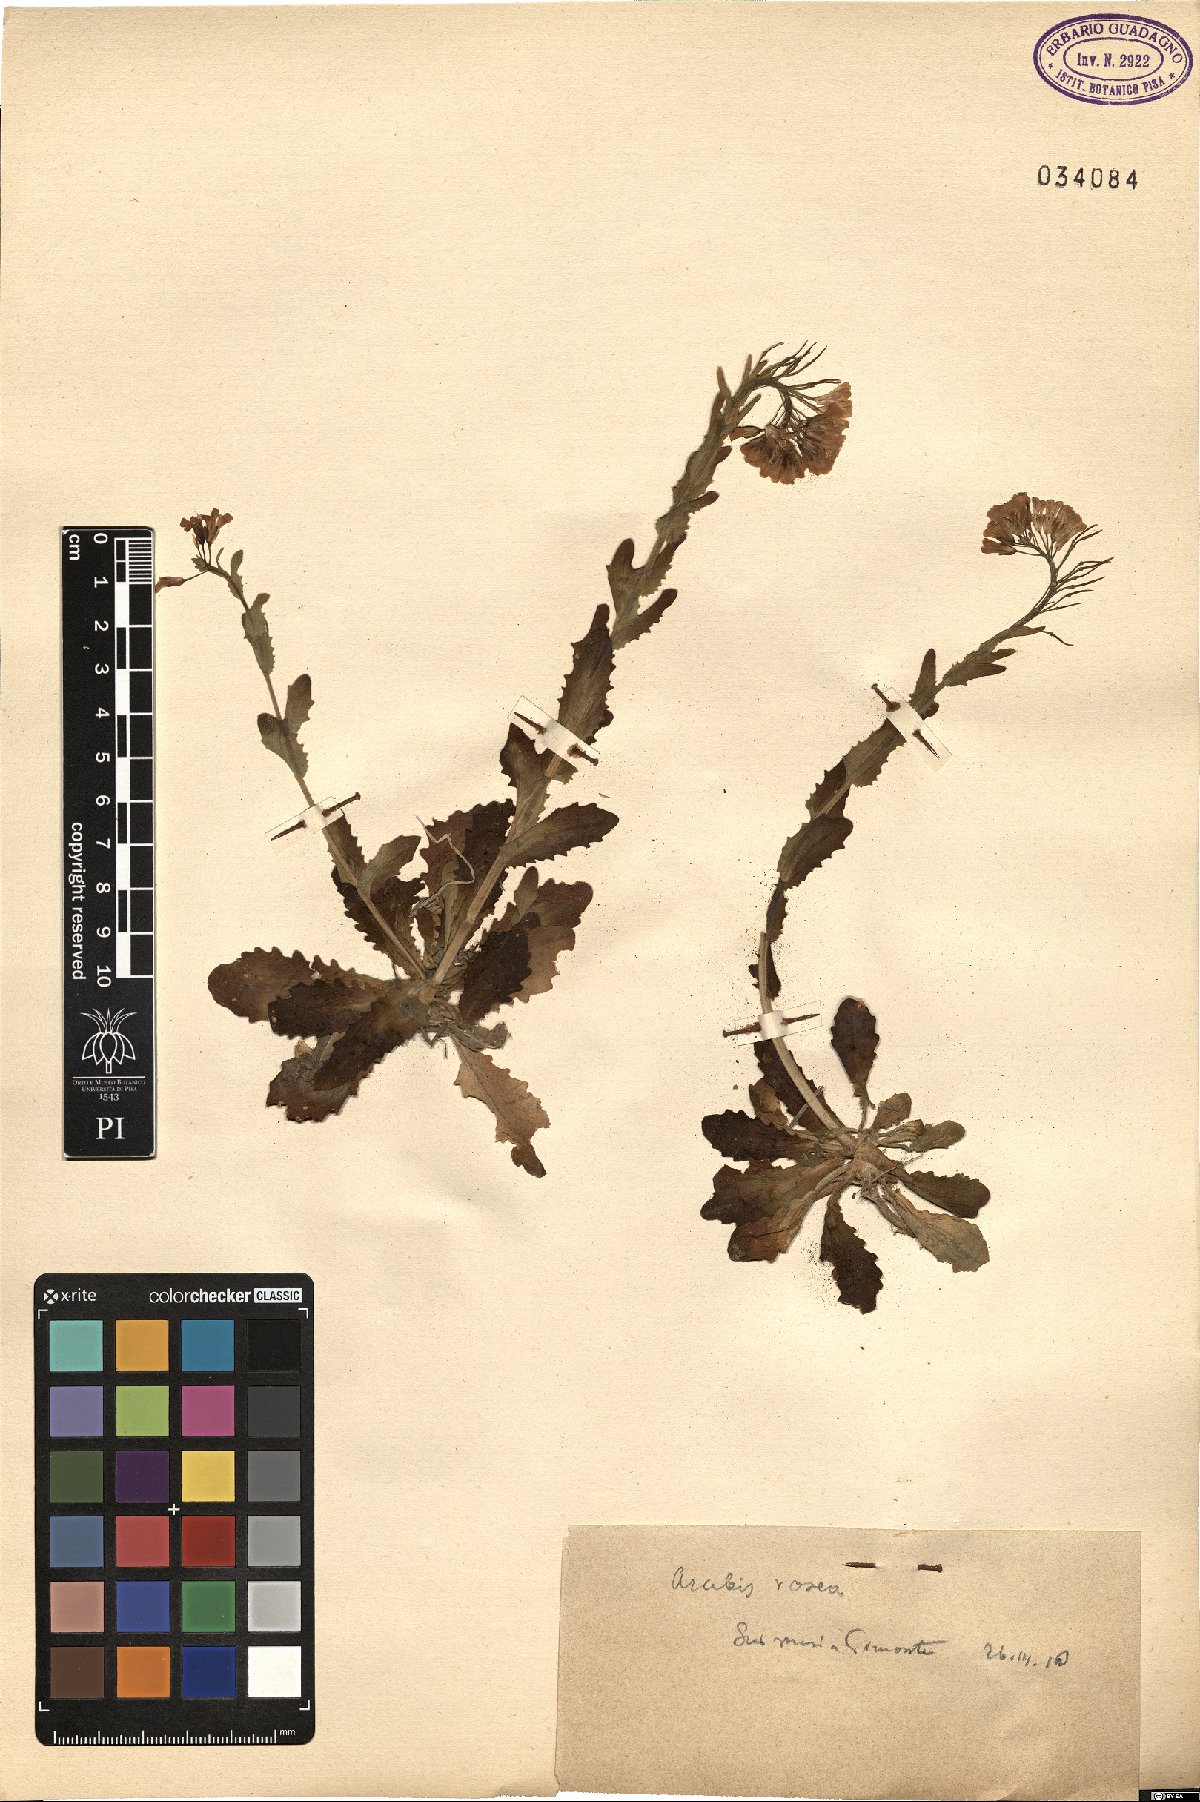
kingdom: Plantae
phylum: Tracheophyta
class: Magnoliopsida
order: Brassicales
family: Brassicaceae
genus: Arabis
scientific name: Arabis collina
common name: Rosy cress
